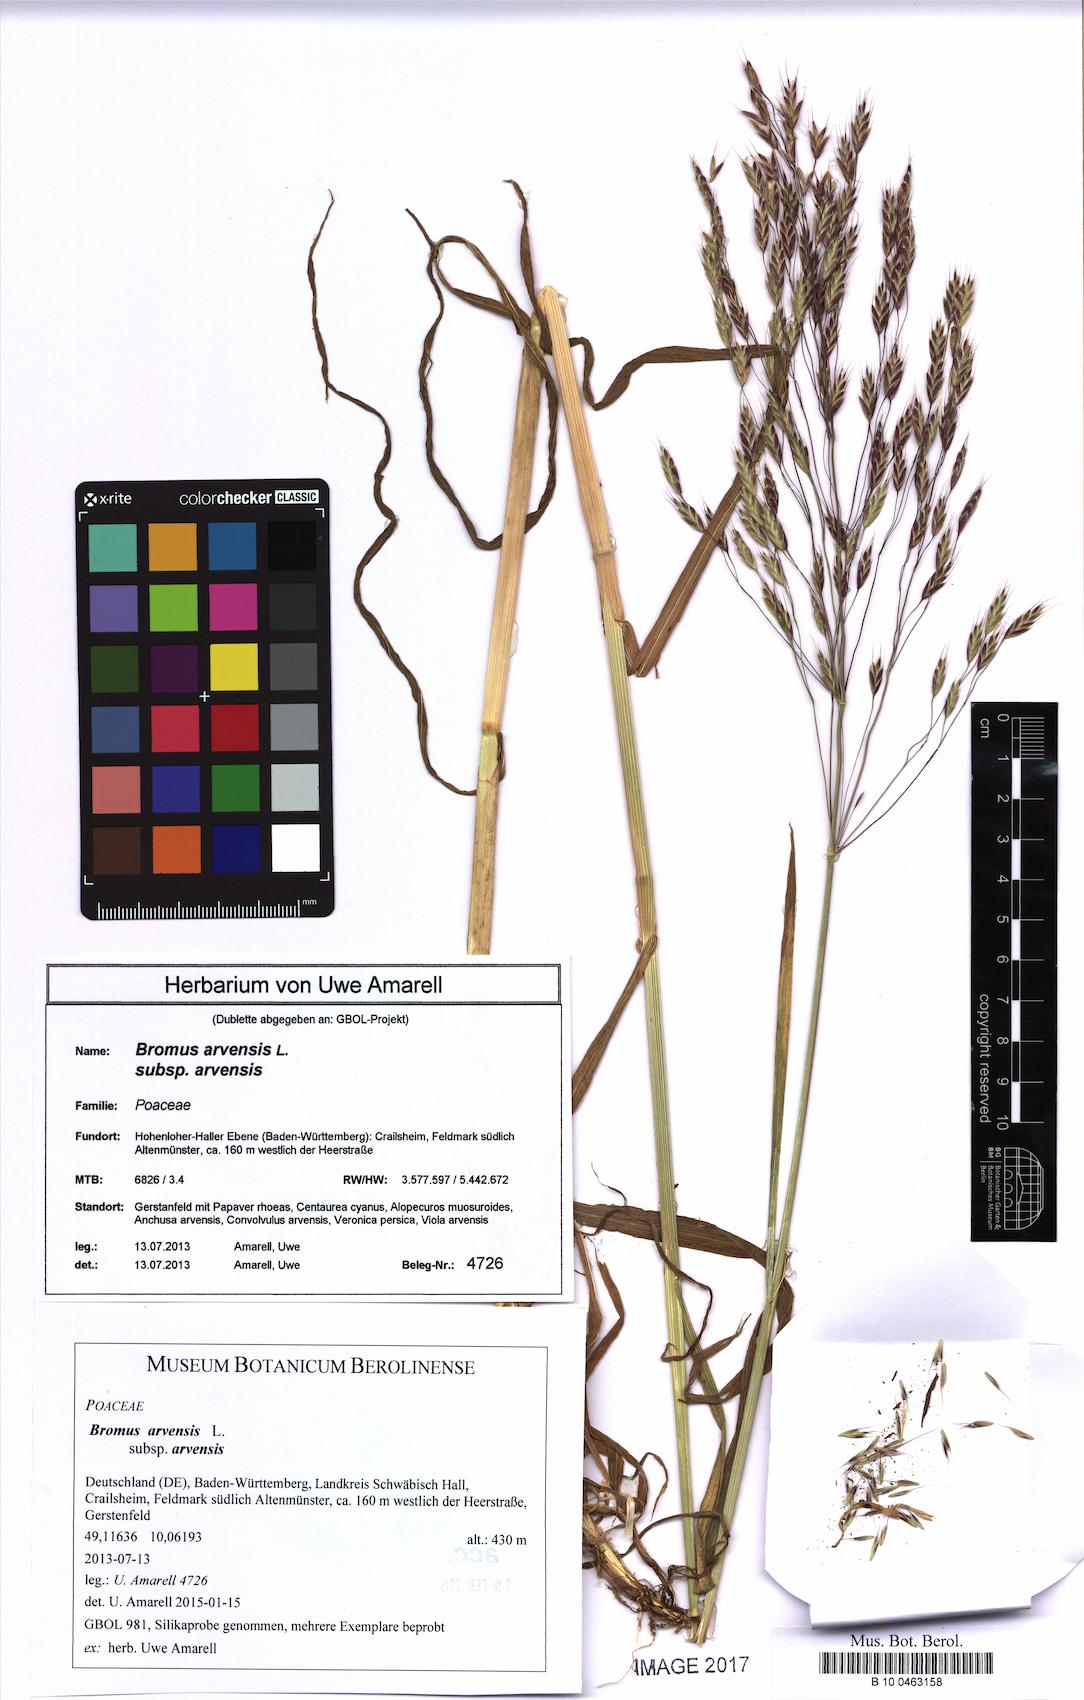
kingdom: Plantae
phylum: Tracheophyta
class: Liliopsida
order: Poales
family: Poaceae
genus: Bromus
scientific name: Bromus arvensis
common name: Field brome
